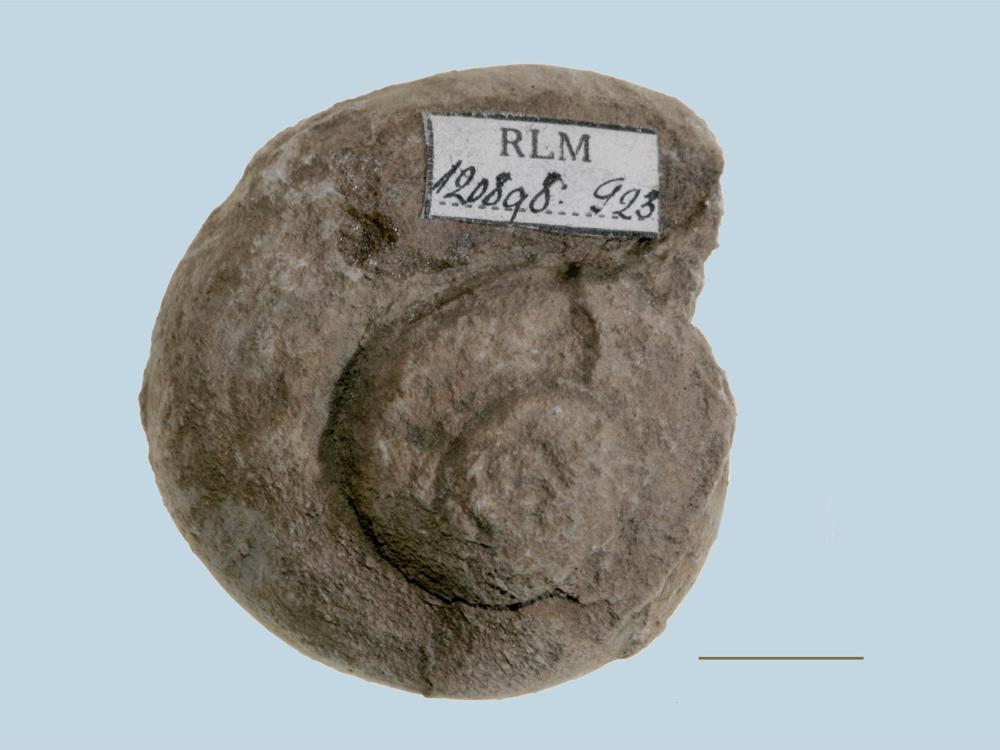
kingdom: Animalia
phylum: Mollusca
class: Gastropoda
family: Pollicinidae
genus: Pollicina
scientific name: Pollicina crassitesta
